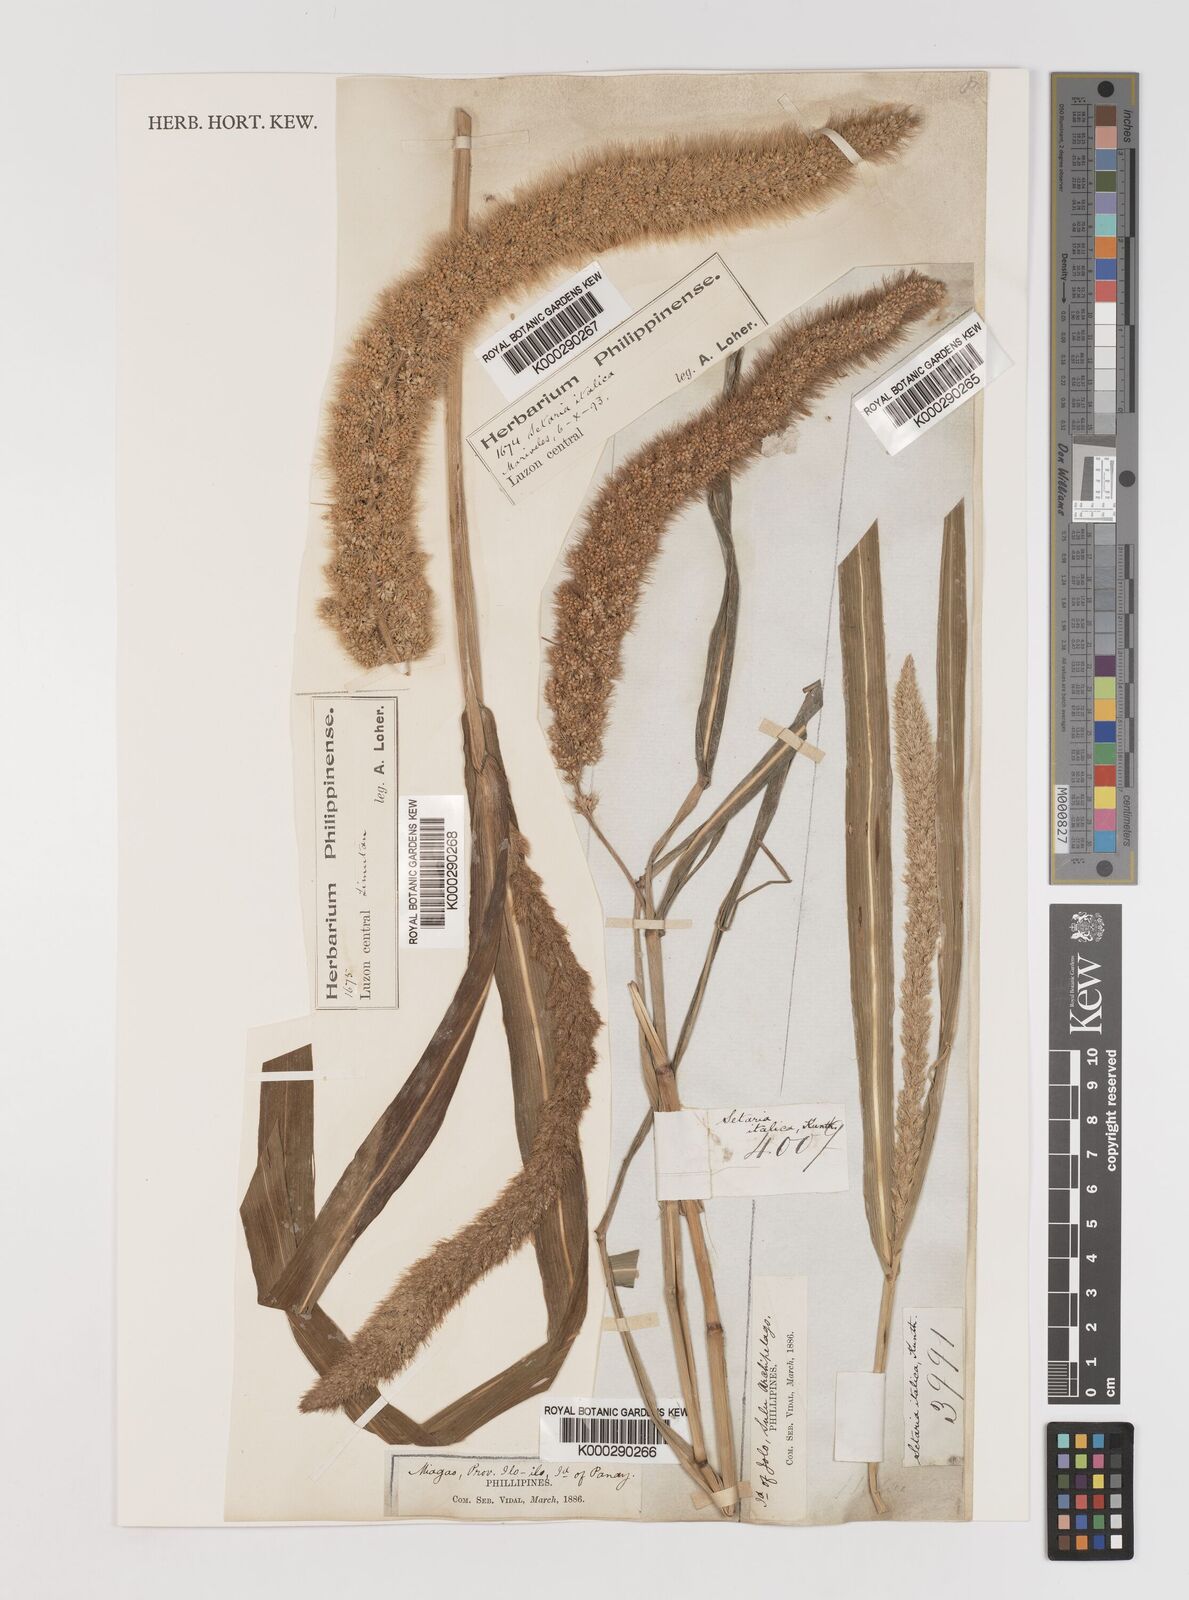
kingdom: Plantae
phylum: Tracheophyta
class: Liliopsida
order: Poales
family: Poaceae
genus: Setaria
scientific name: Setaria viridis
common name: Green bristlegrass
